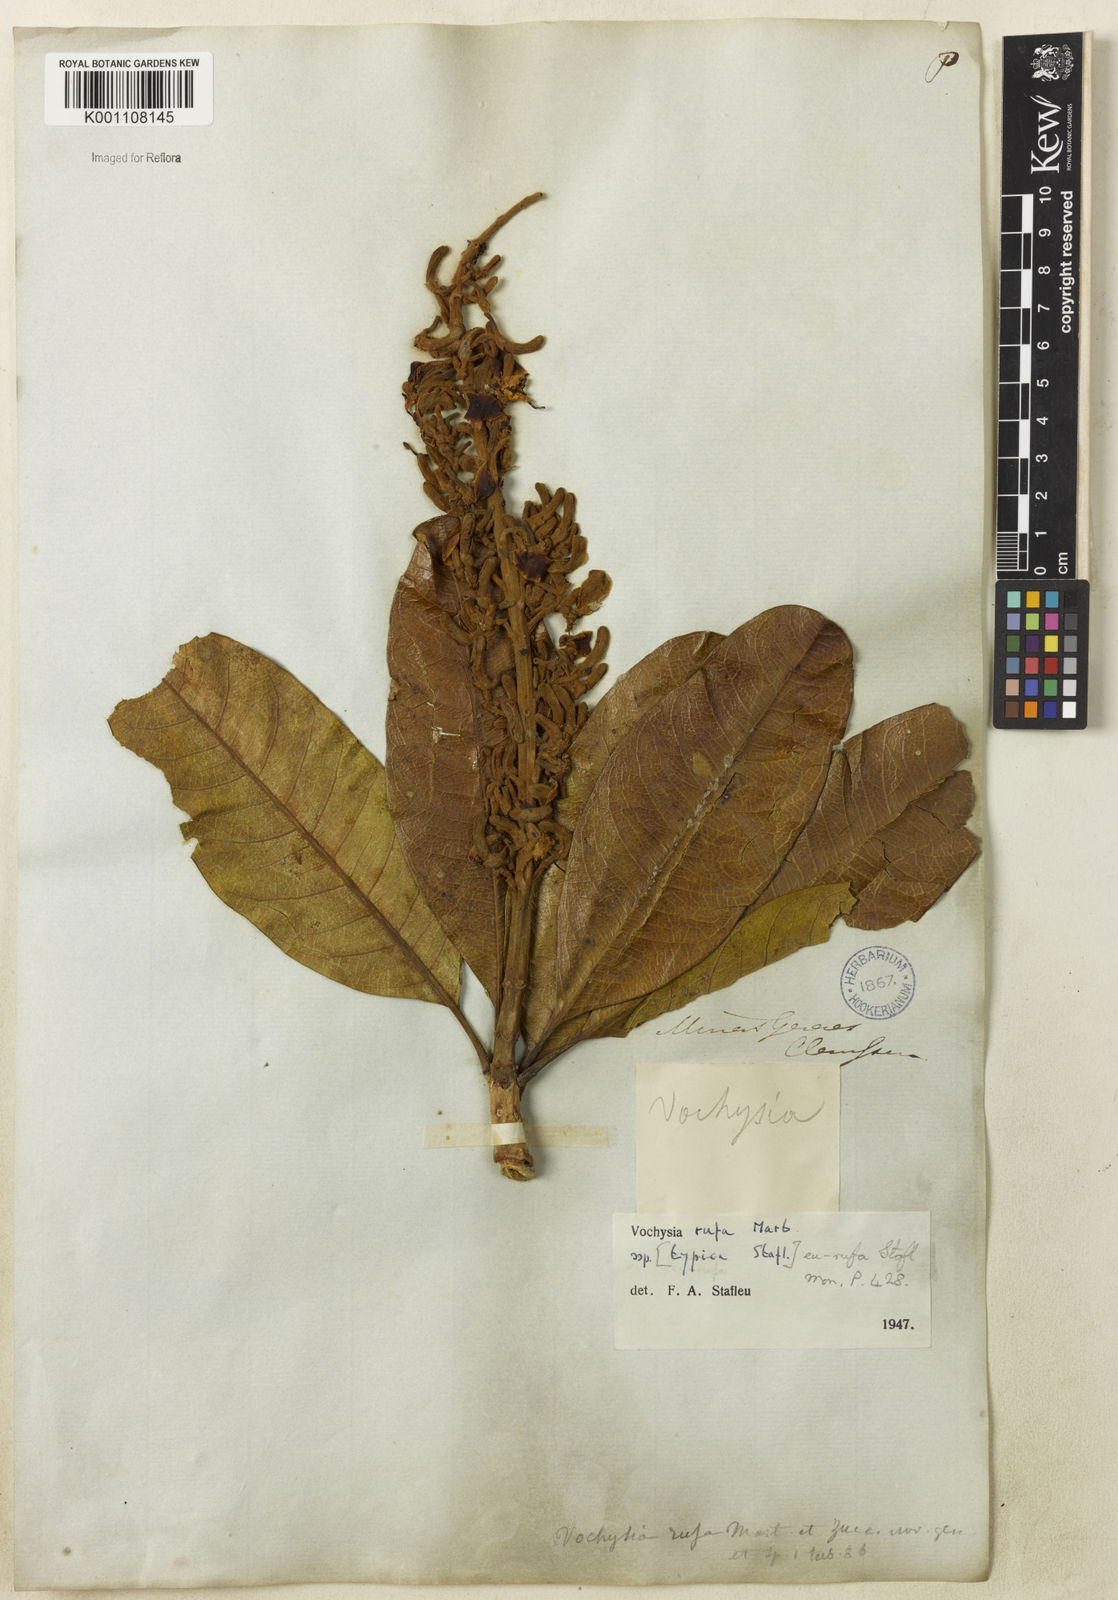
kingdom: Plantae
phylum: Tracheophyta
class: Magnoliopsida
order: Myrtales
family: Vochysiaceae
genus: Vochysia
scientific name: Vochysia rufa
